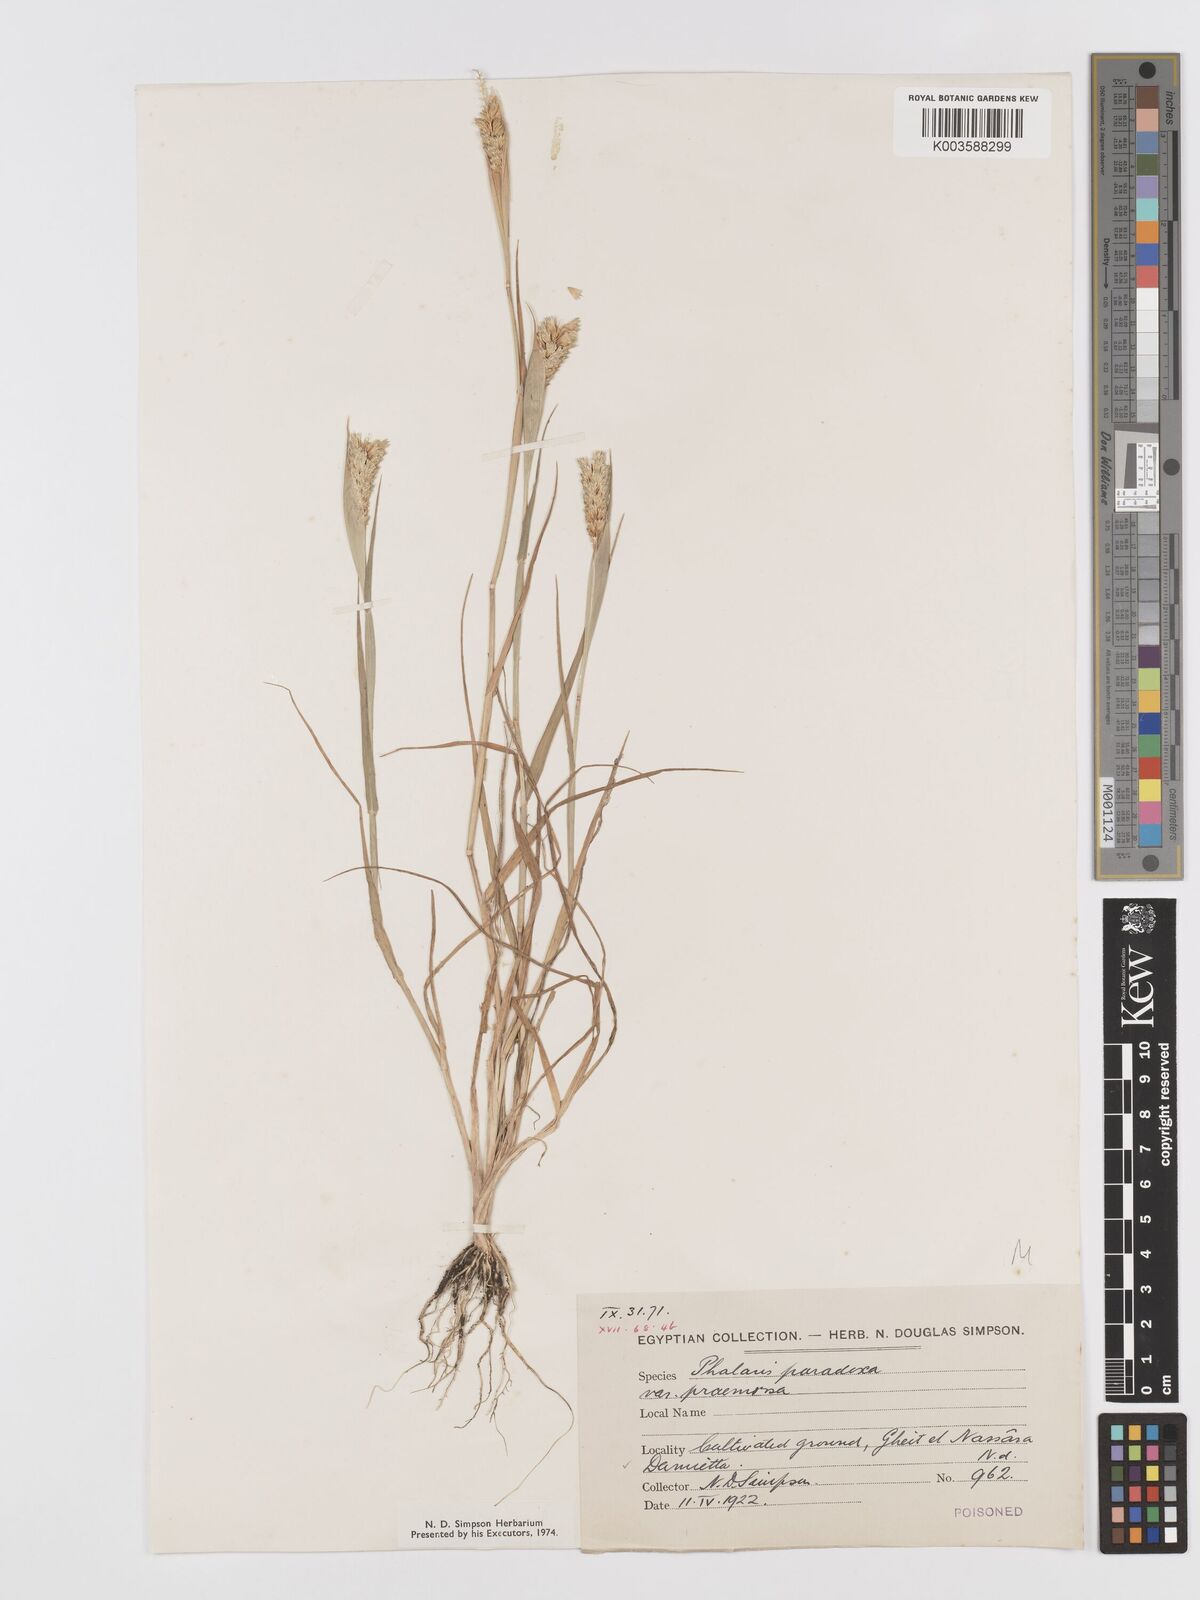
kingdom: Plantae
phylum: Tracheophyta
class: Liliopsida
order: Poales
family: Poaceae
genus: Phalaris
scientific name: Phalaris paradoxa
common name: Awned canary-grass
